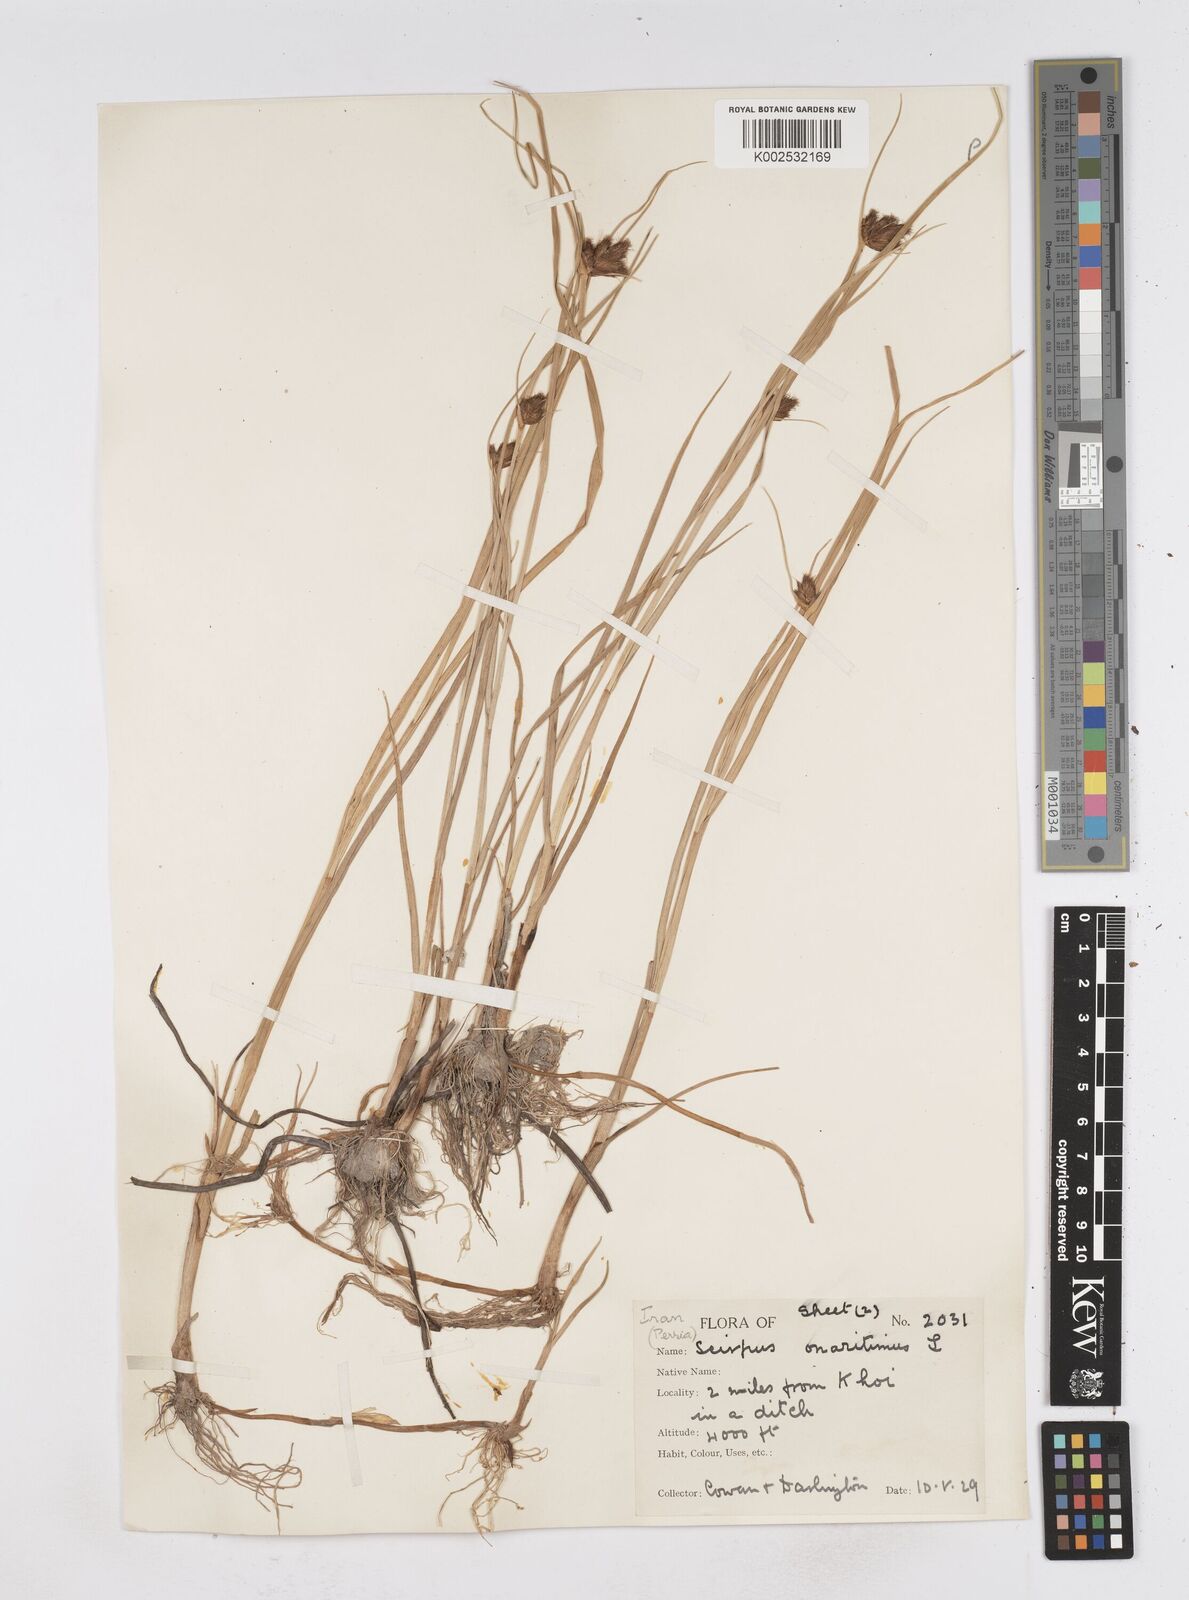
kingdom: Plantae
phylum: Tracheophyta
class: Liliopsida
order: Poales
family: Cyperaceae
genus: Bolboschoenus
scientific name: Bolboschoenus maritimus
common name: Sea club-rush
